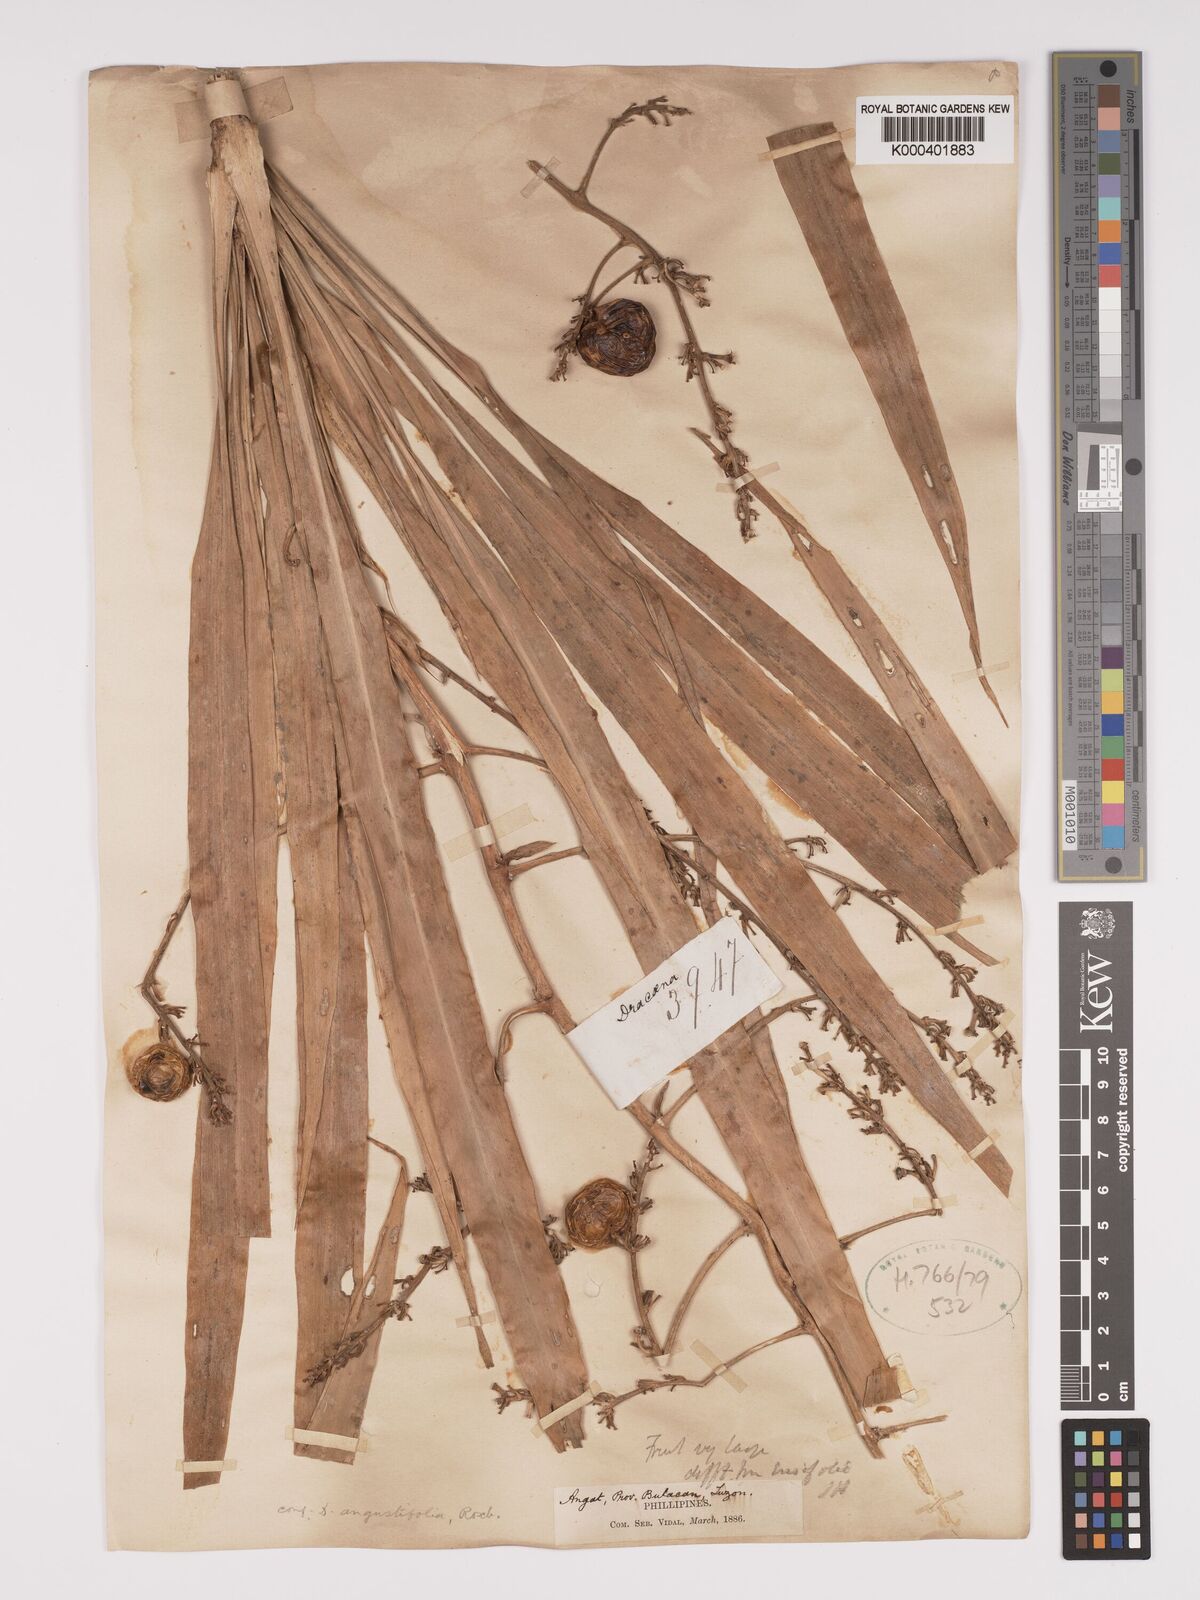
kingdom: Plantae
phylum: Tracheophyta
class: Liliopsida
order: Asparagales
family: Asparagaceae
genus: Dracaena
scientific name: Dracaena angustifolia
